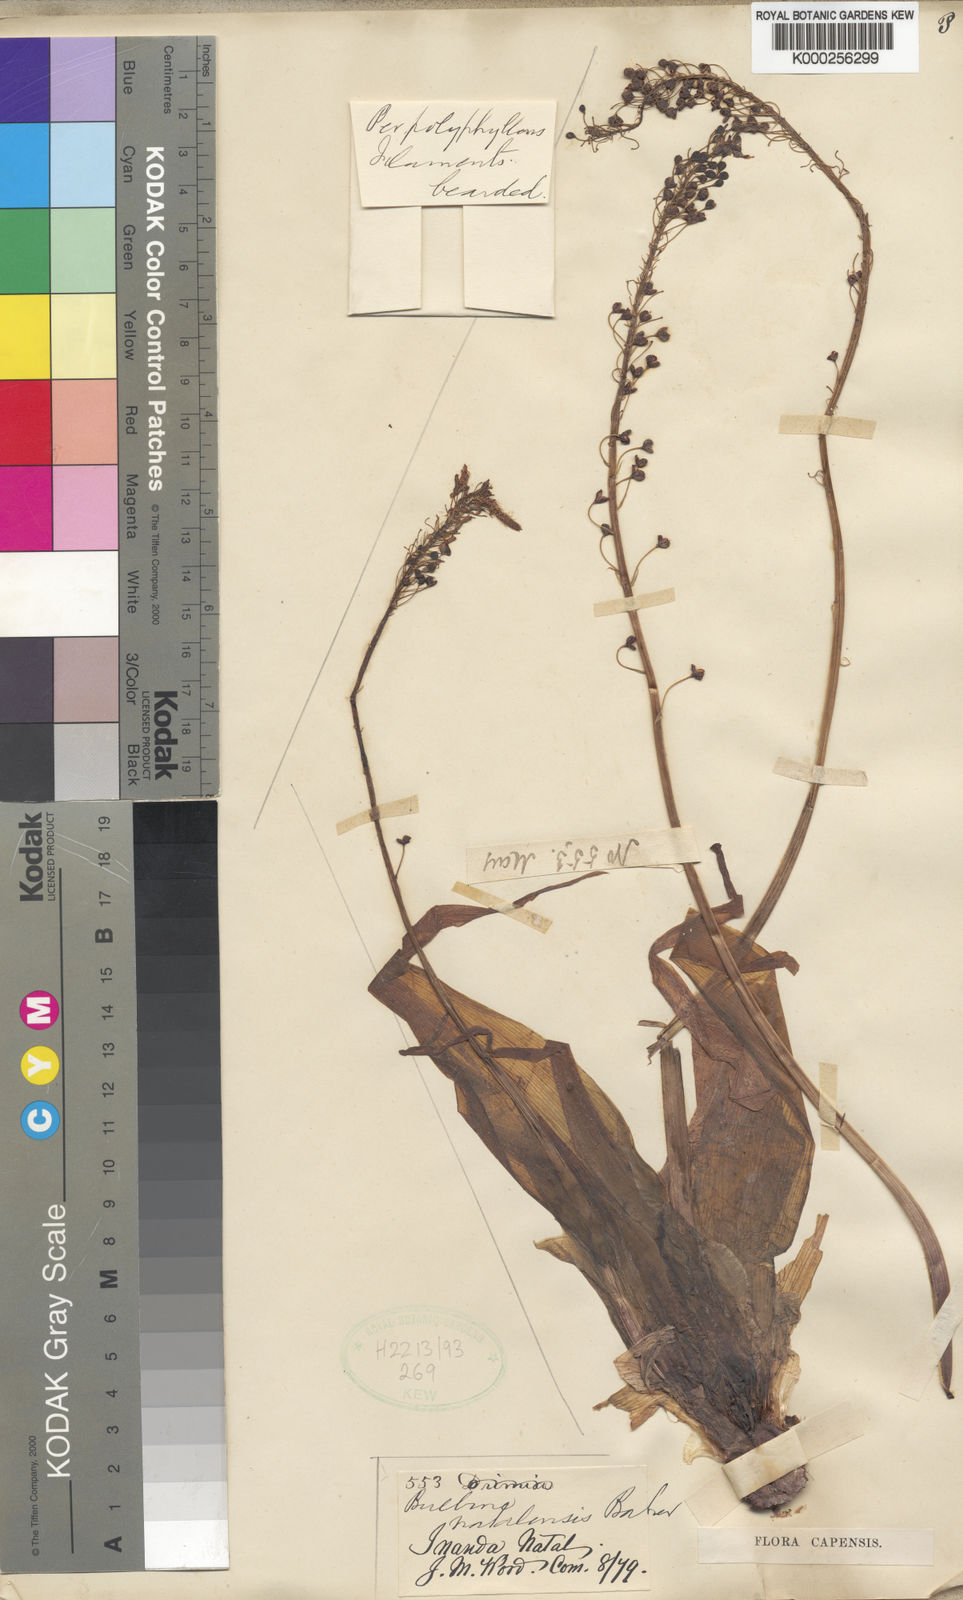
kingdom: Plantae
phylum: Tracheophyta
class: Liliopsida
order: Asparagales
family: Asphodelaceae
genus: Bulbine
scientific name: Bulbine latifolia
